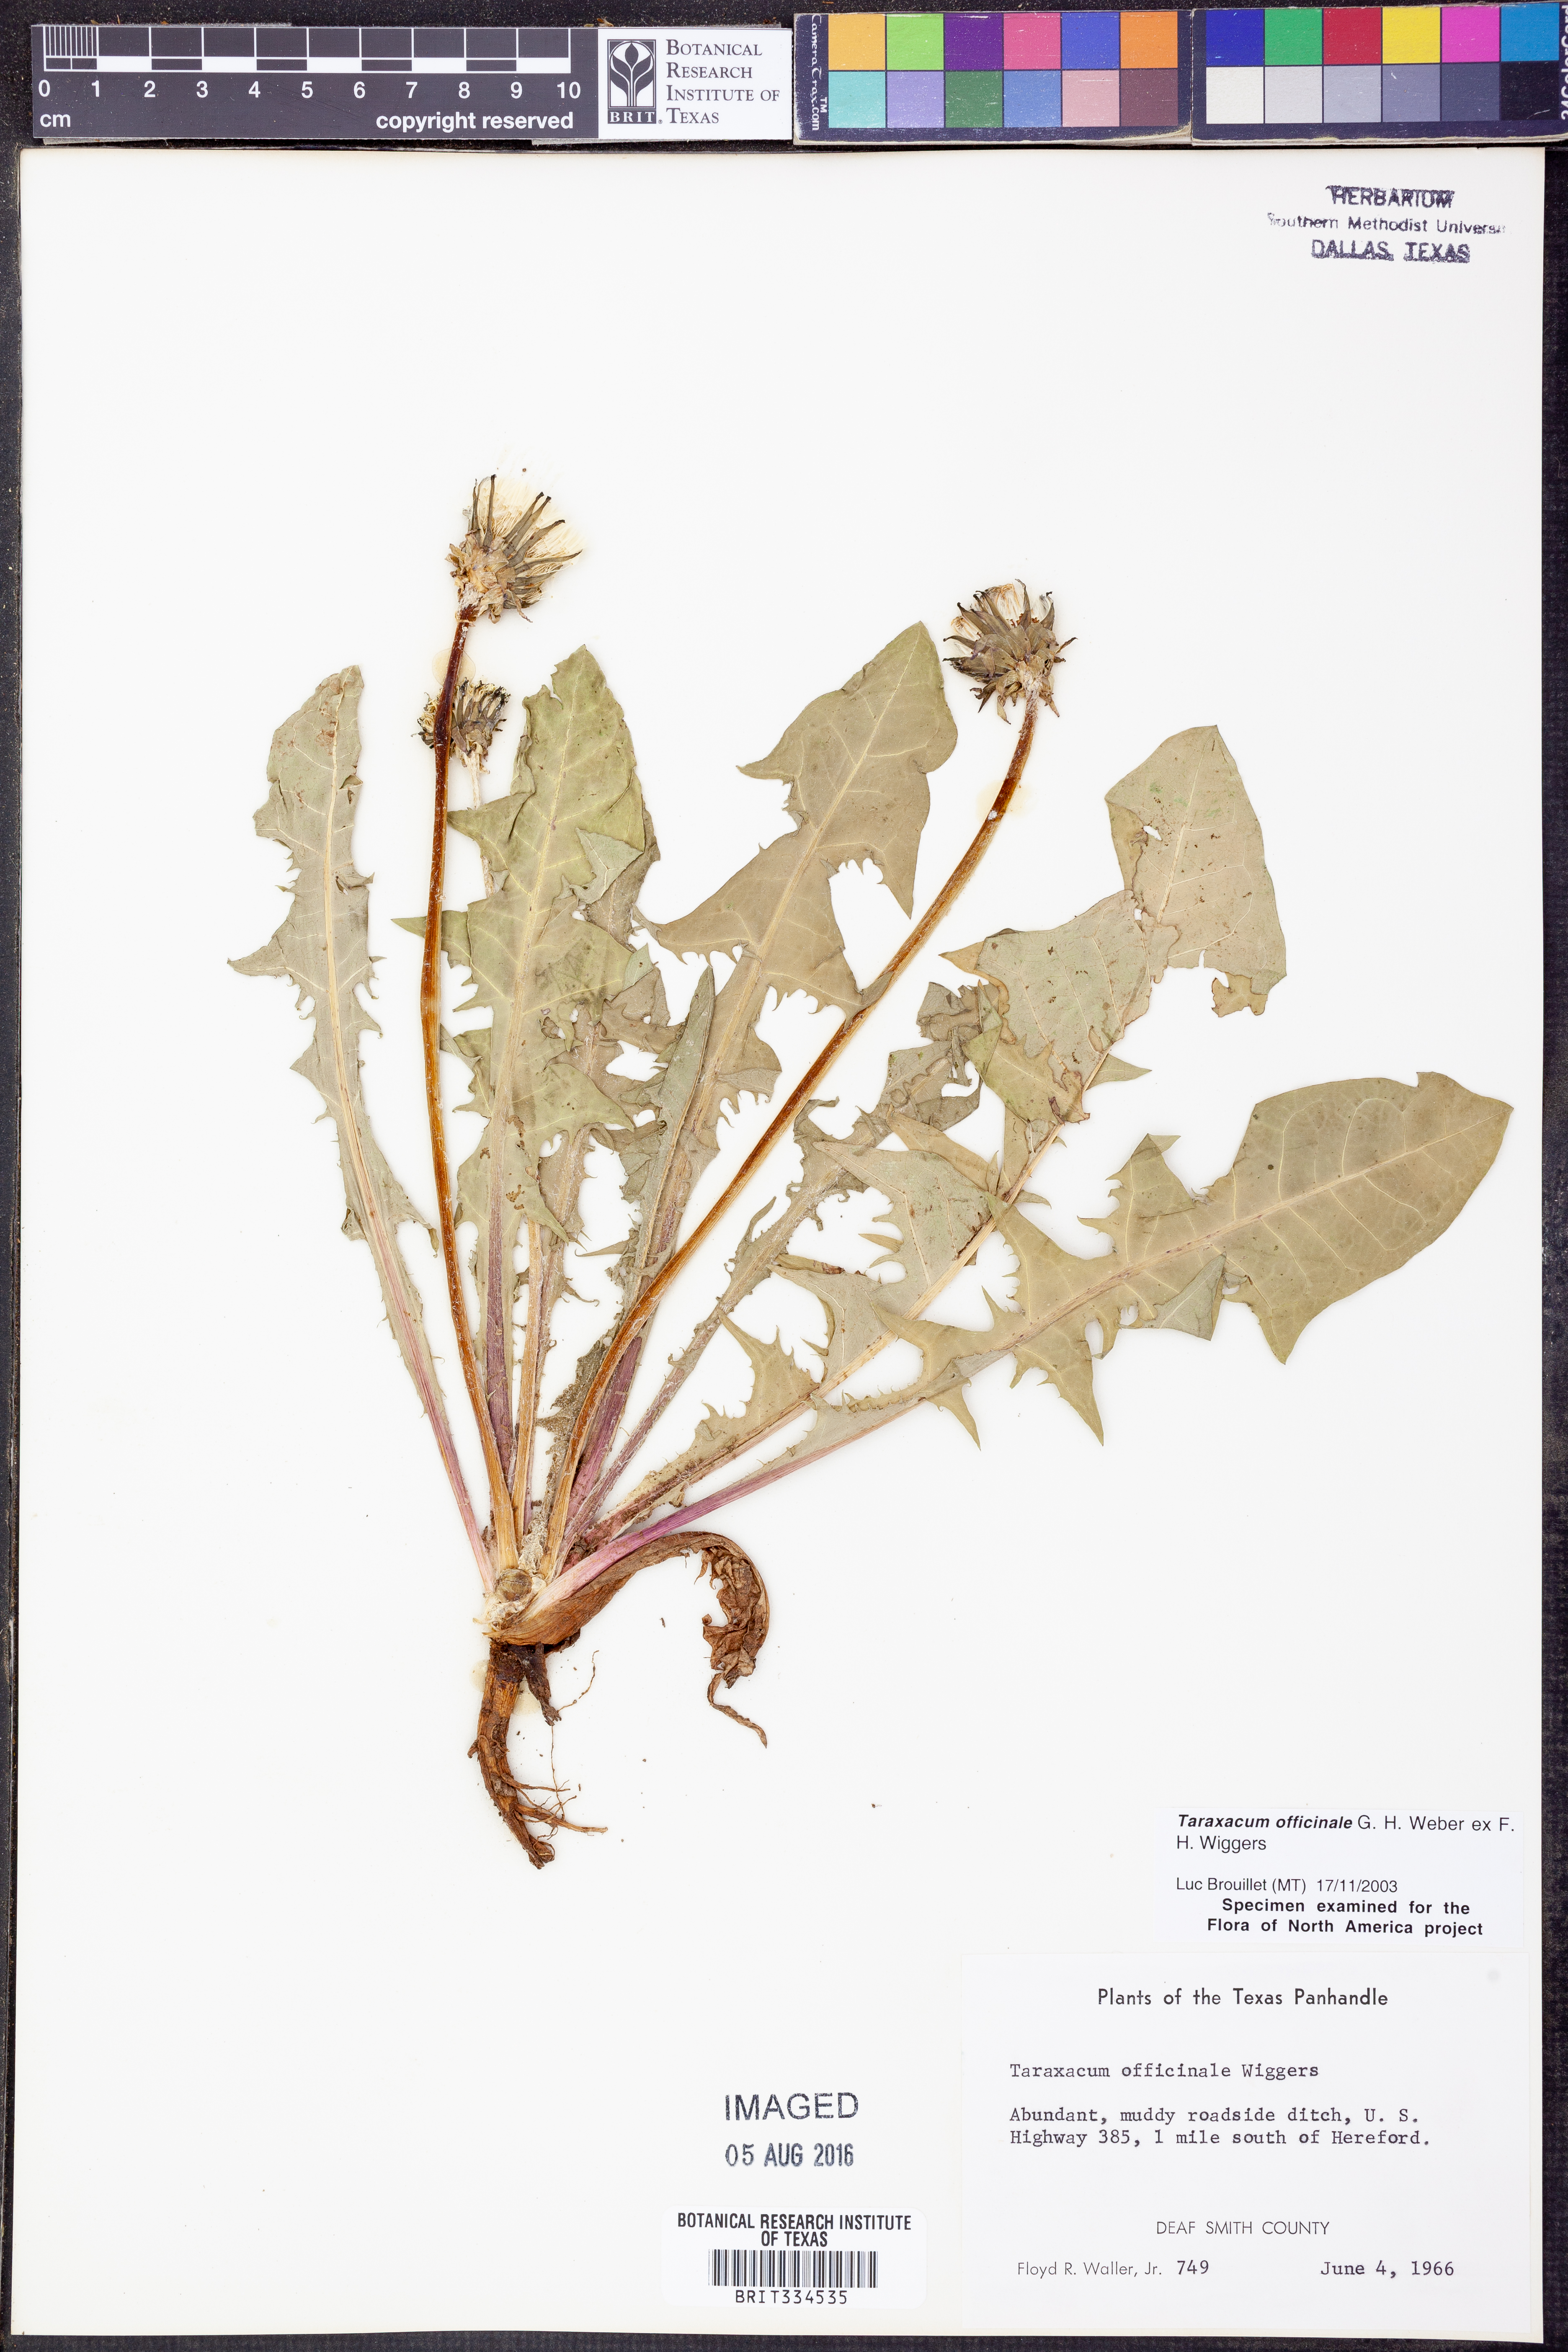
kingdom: Plantae
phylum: Tracheophyta
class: Magnoliopsida
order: Asterales
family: Asteraceae
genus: Taraxacum
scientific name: Taraxacum officinale
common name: Common dandelion
